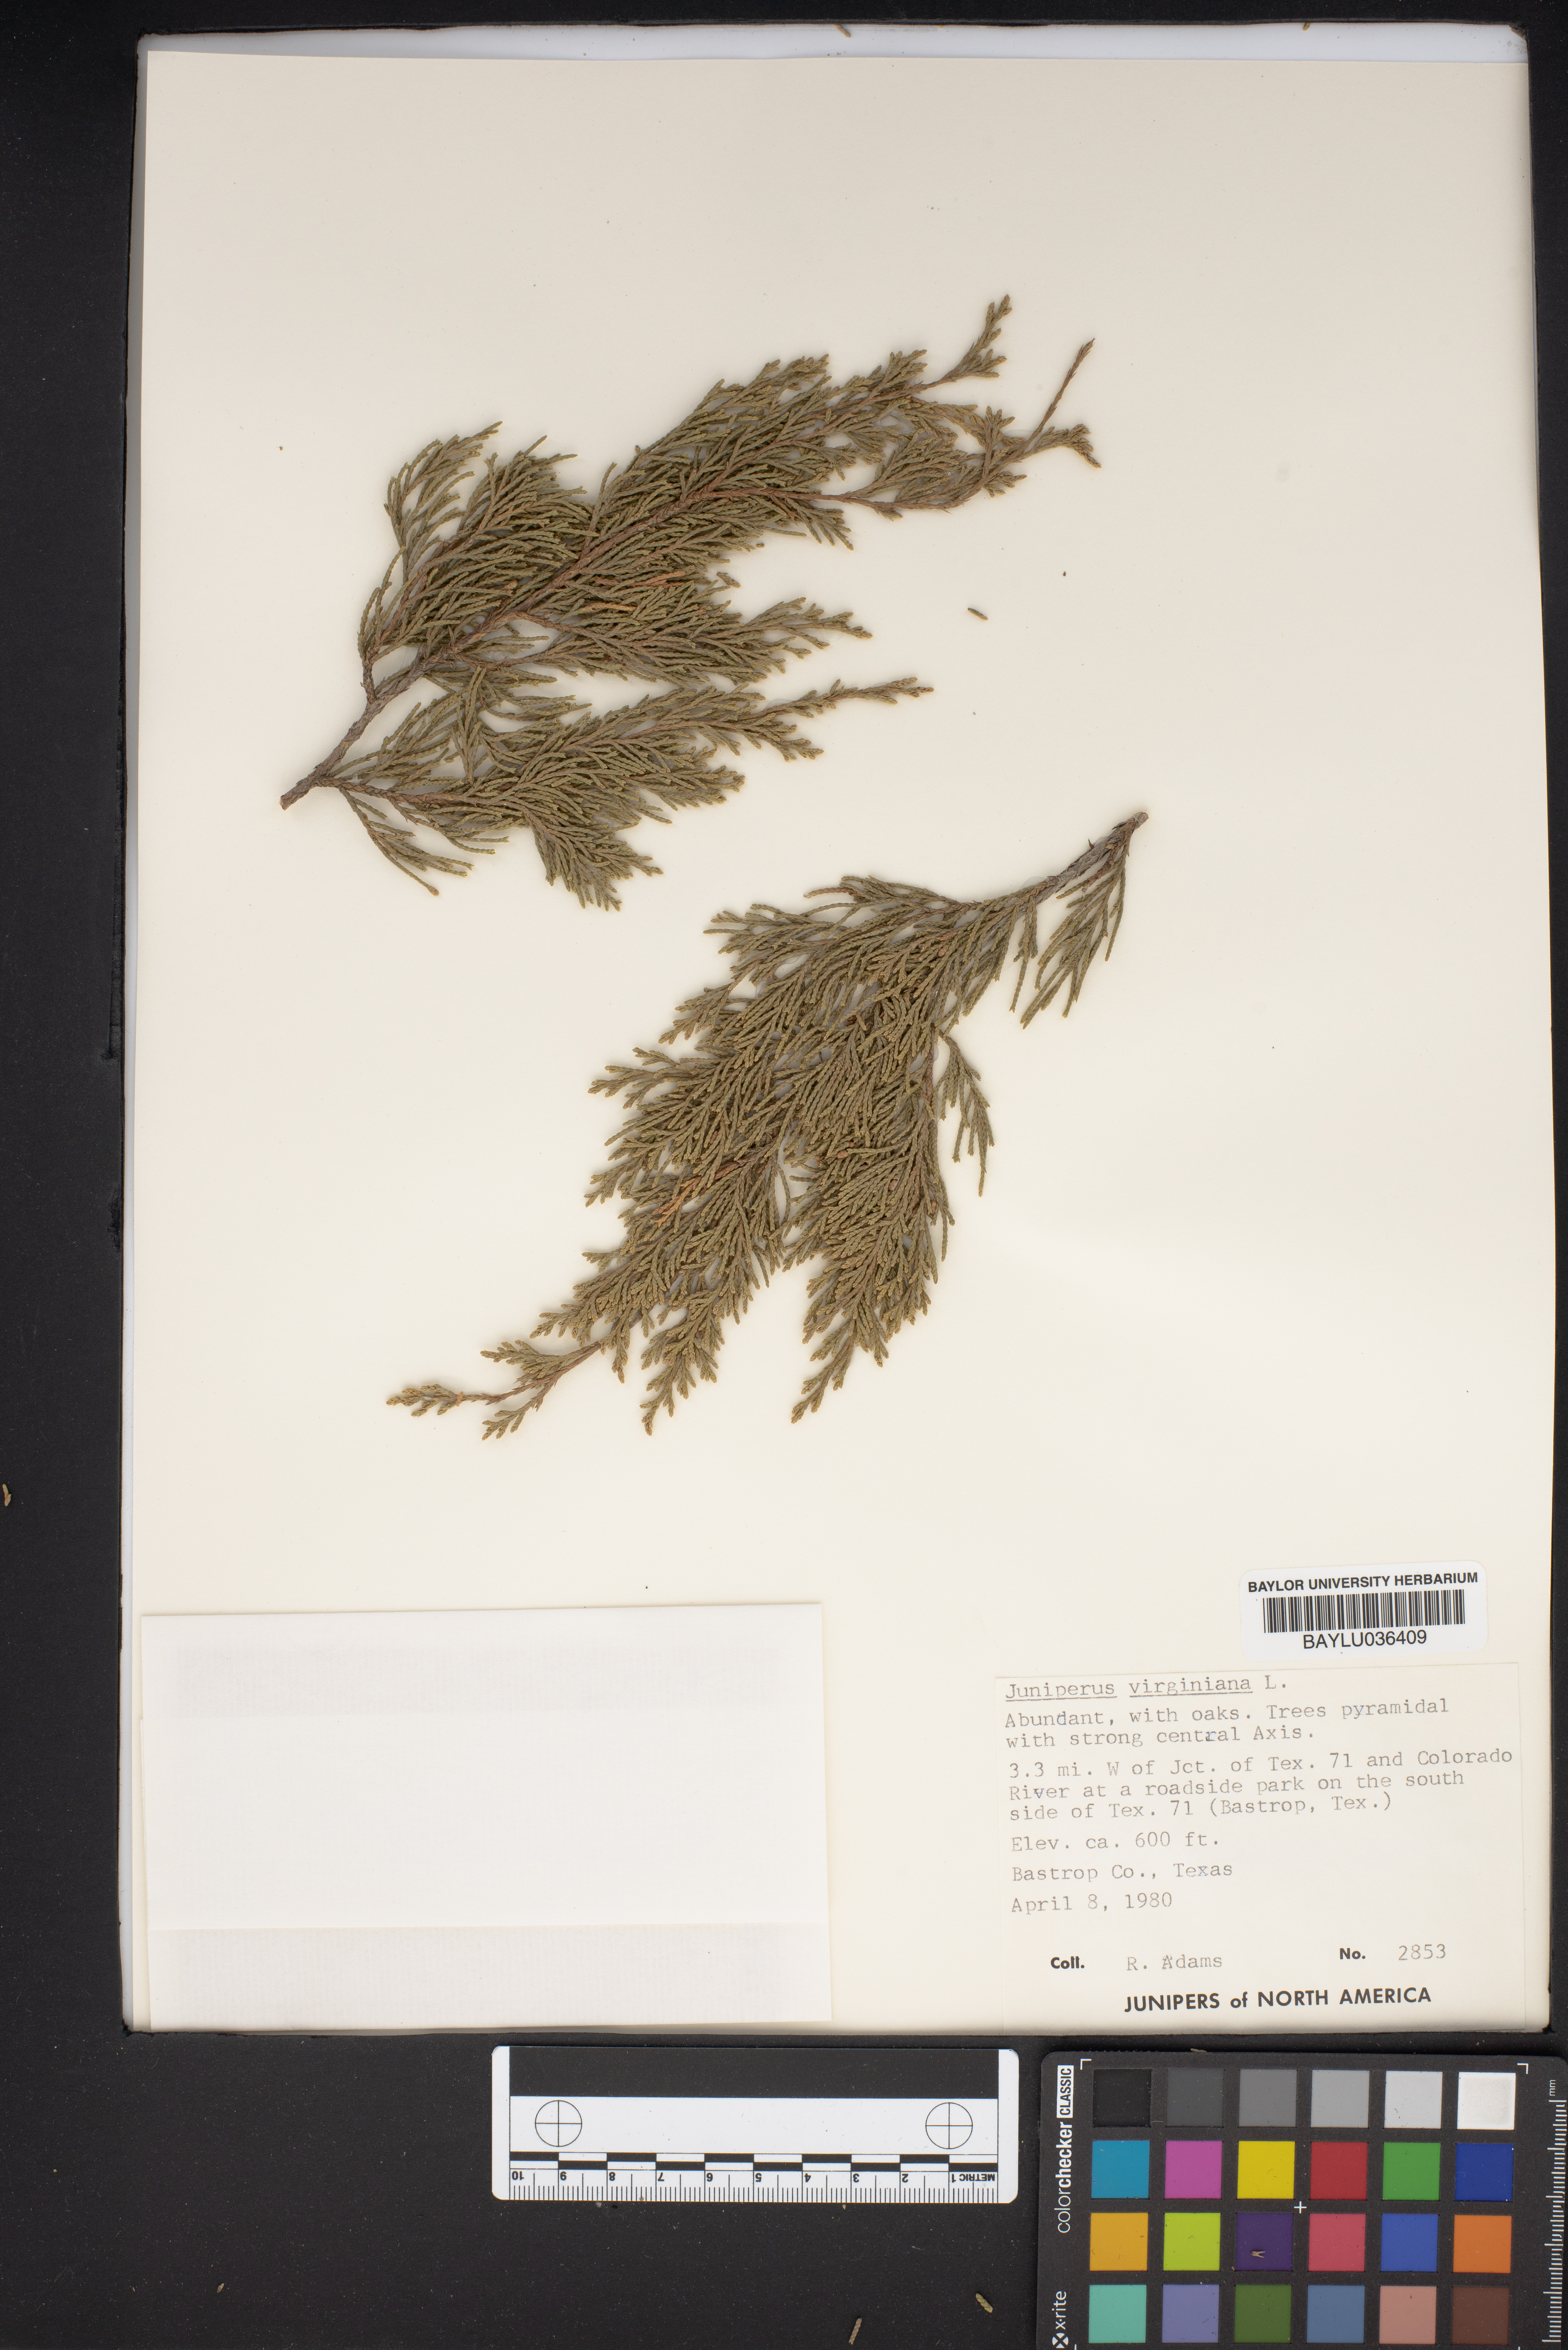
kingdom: Plantae
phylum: Tracheophyta
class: Pinopsida
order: Pinales
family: Cupressaceae
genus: Juniperus
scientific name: Juniperus virginiana
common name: Red juniper
